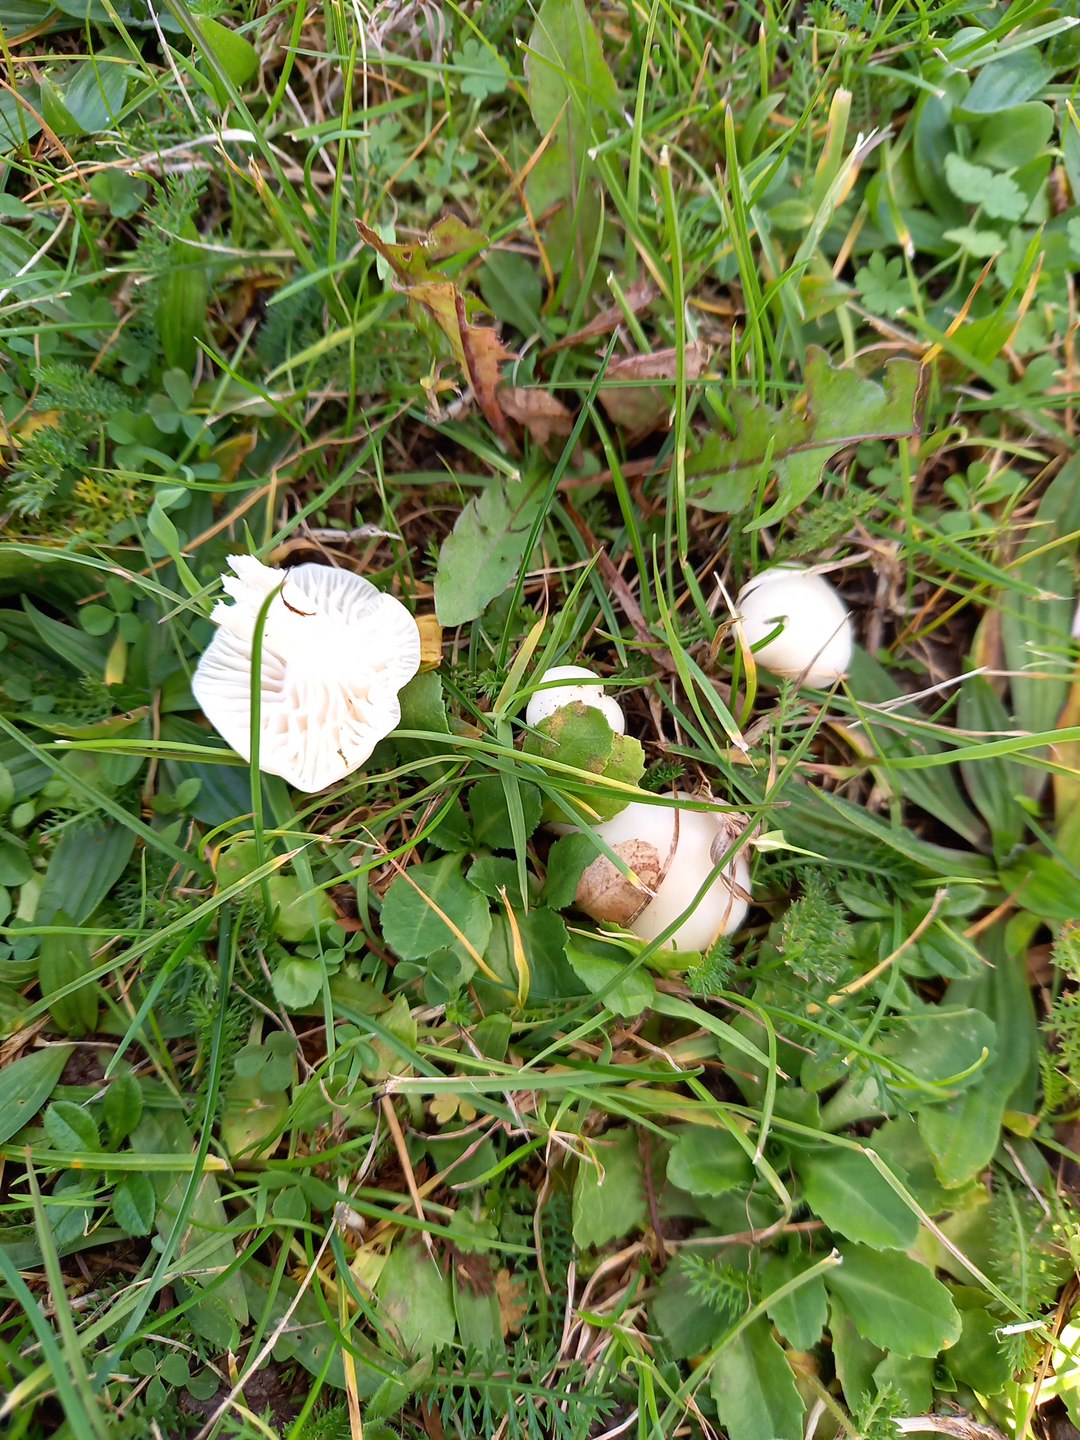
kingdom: Fungi
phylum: Basidiomycota
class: Agaricomycetes
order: Agaricales
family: Hygrophoraceae
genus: Cuphophyllus
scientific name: Cuphophyllus virgineus
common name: snehvid vokshat
